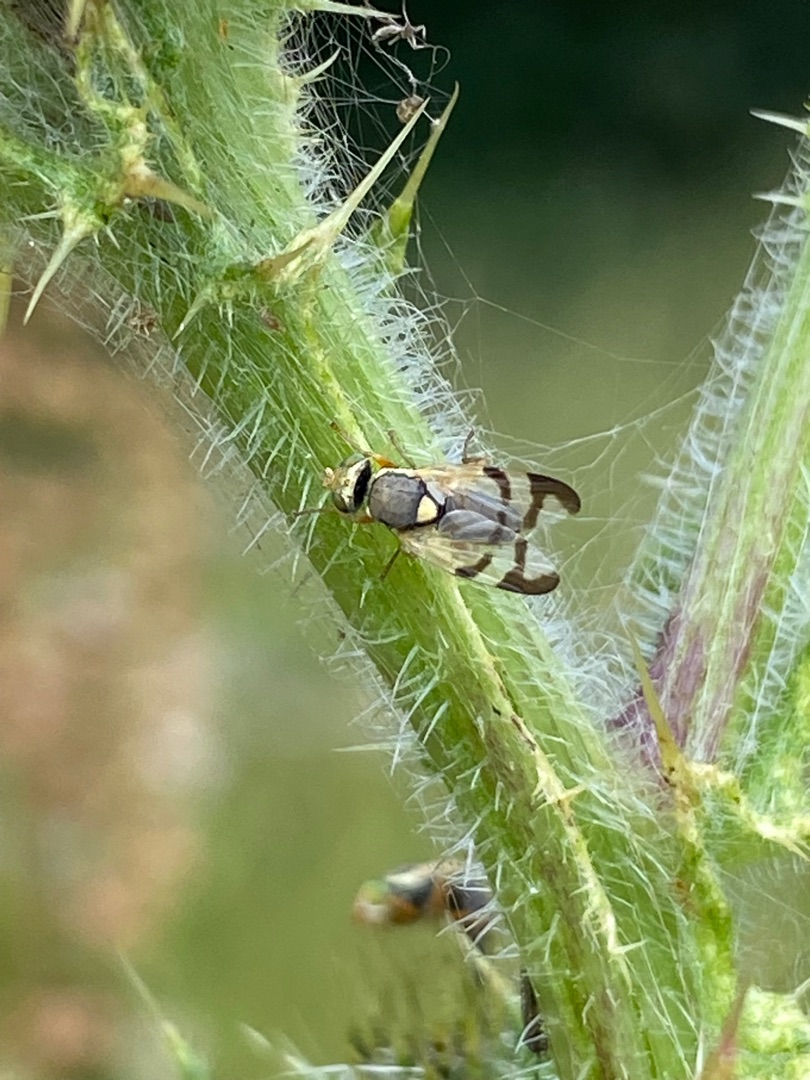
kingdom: Animalia
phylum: Arthropoda
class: Insecta
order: Diptera
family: Tephritidae
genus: Urophora
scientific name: Urophora stylata
